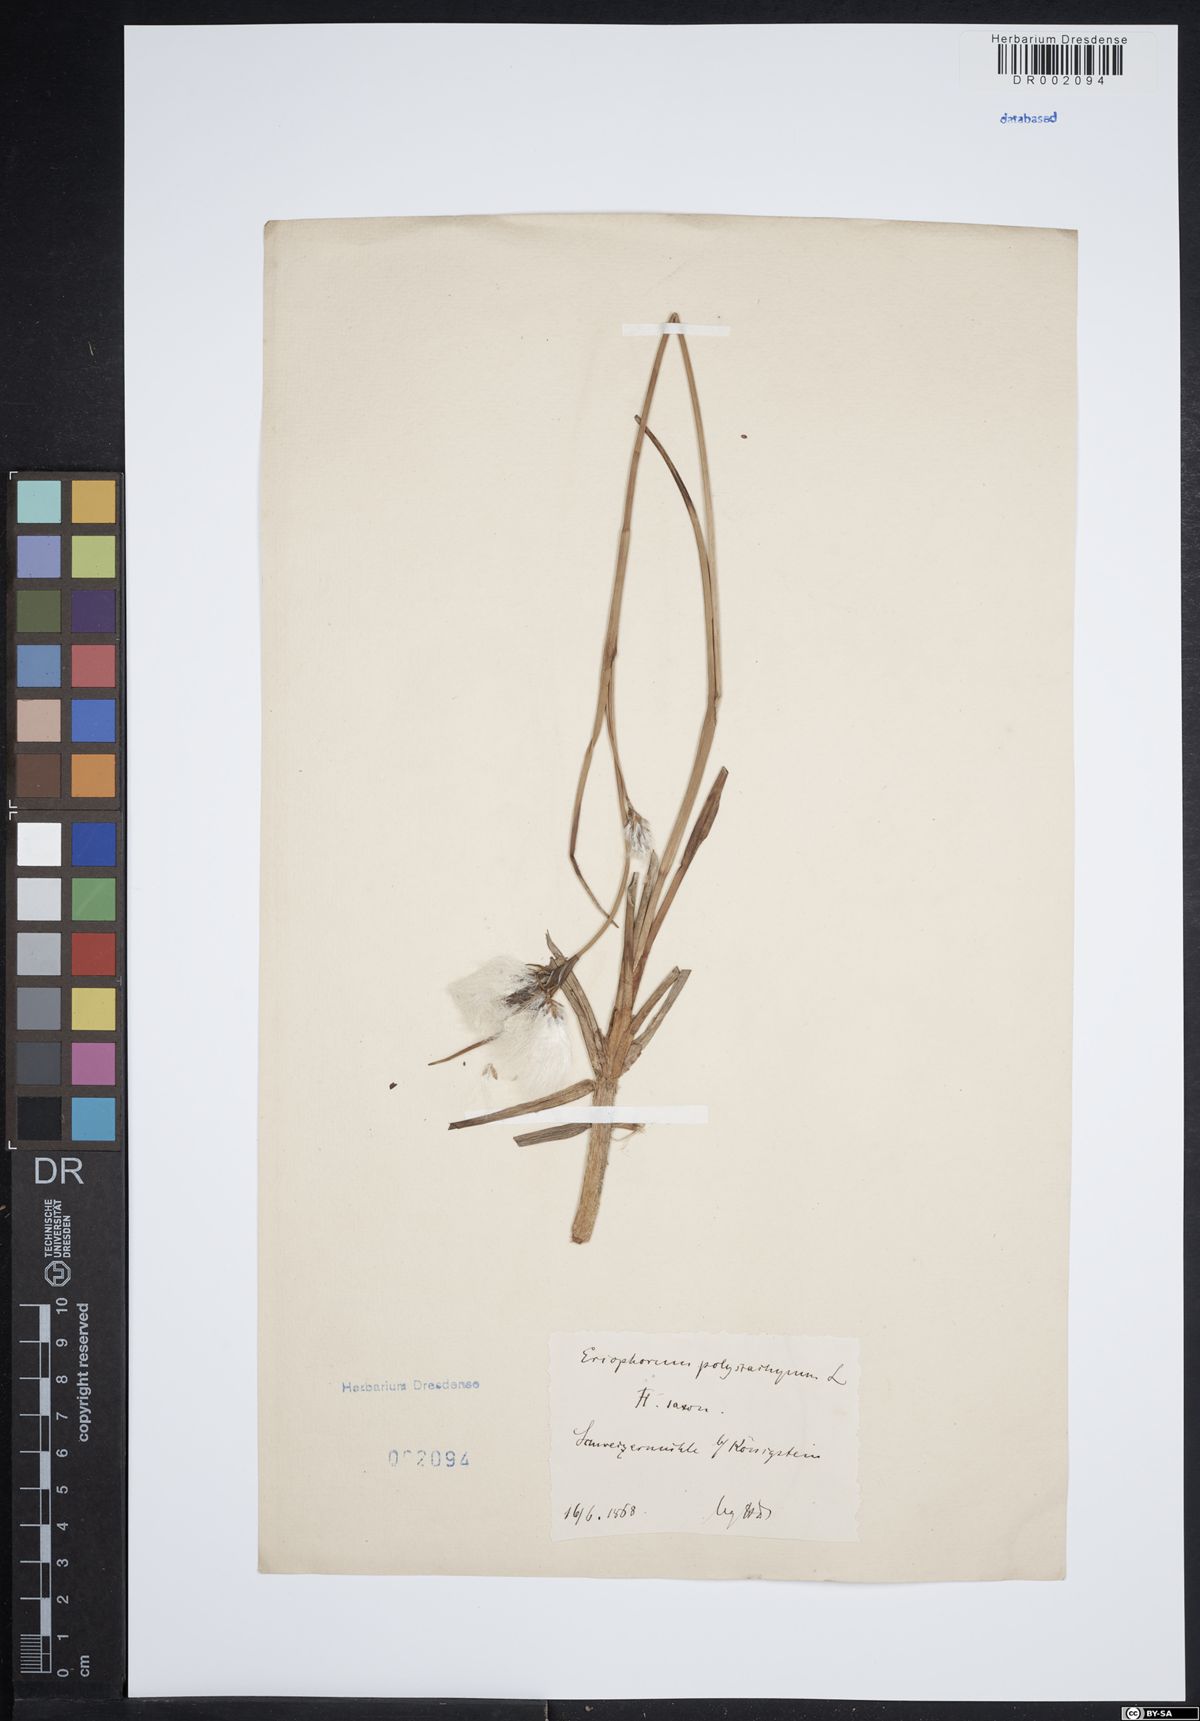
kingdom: Plantae
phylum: Tracheophyta
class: Liliopsida
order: Poales
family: Cyperaceae
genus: Eriophorum
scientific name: Eriophorum angustifolium
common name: Common cottongrass
